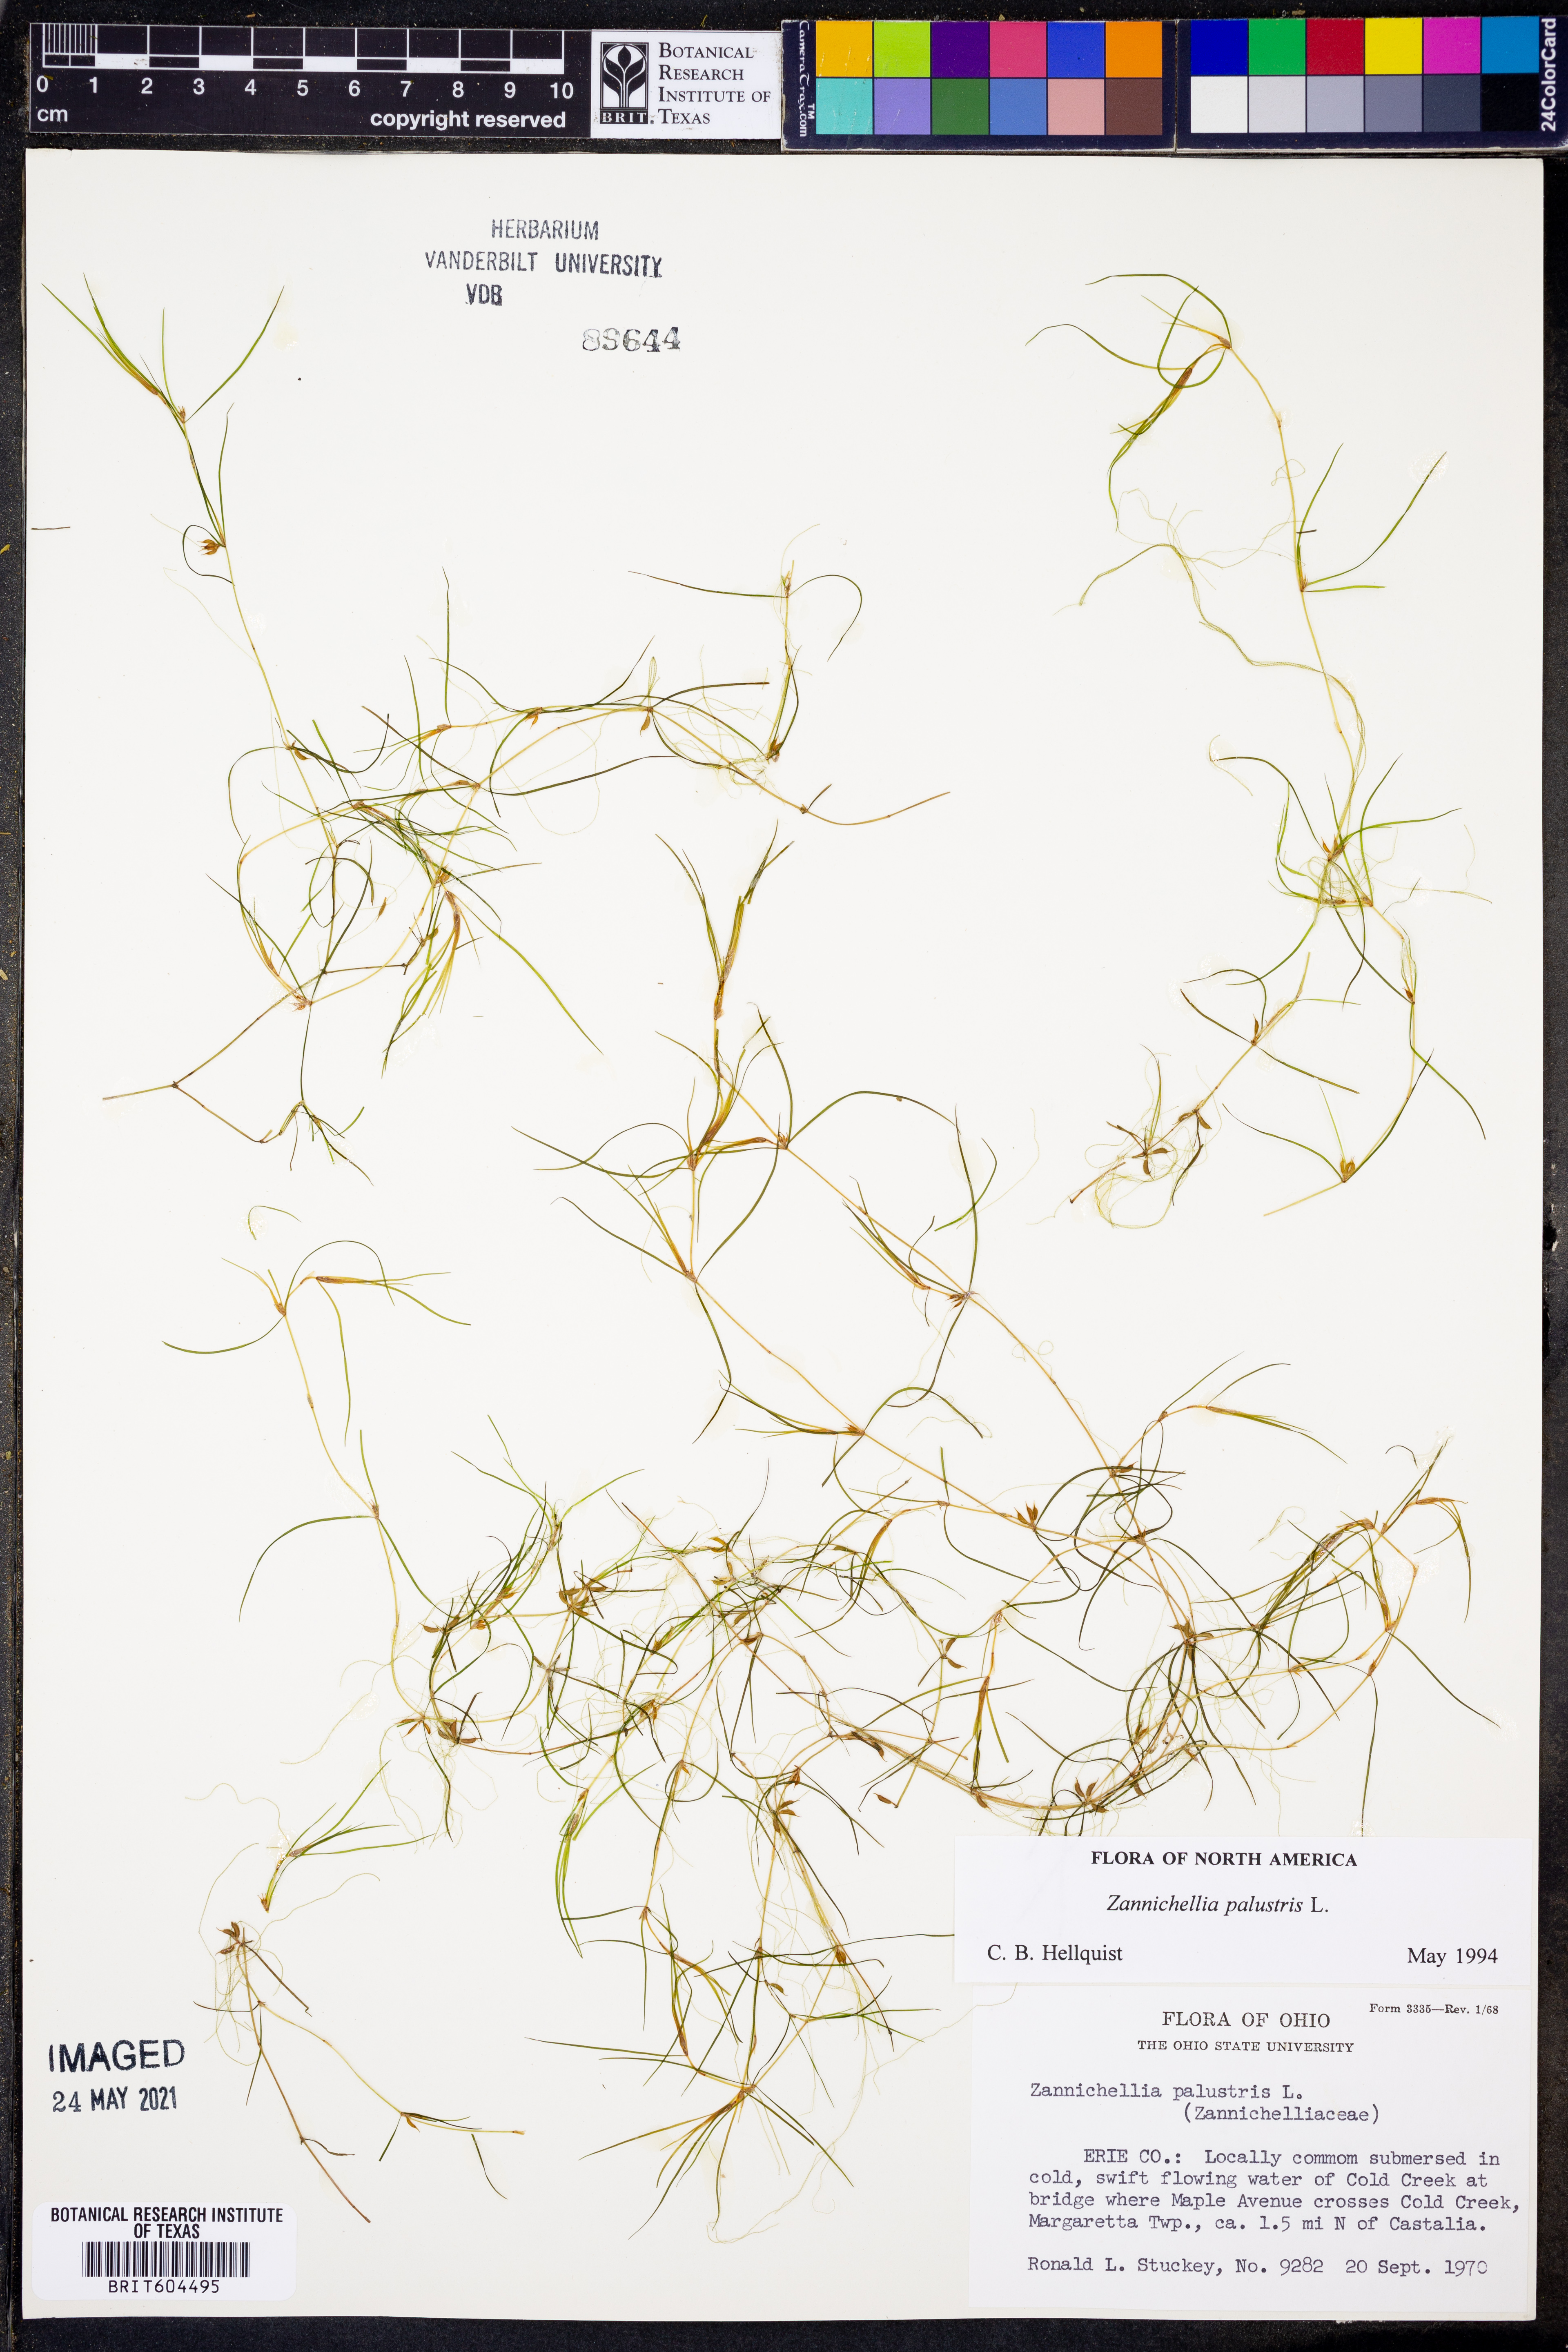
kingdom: Plantae
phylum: Tracheophyta
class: Liliopsida
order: Alismatales
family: Potamogetonaceae
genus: Zannichellia
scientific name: Zannichellia palustris
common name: Horned pondweed
